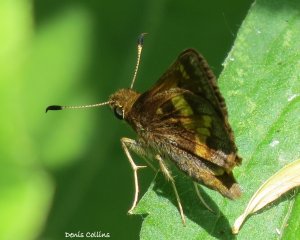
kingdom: Animalia
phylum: Arthropoda
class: Insecta
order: Lepidoptera
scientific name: Lepidoptera
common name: Butterflies
